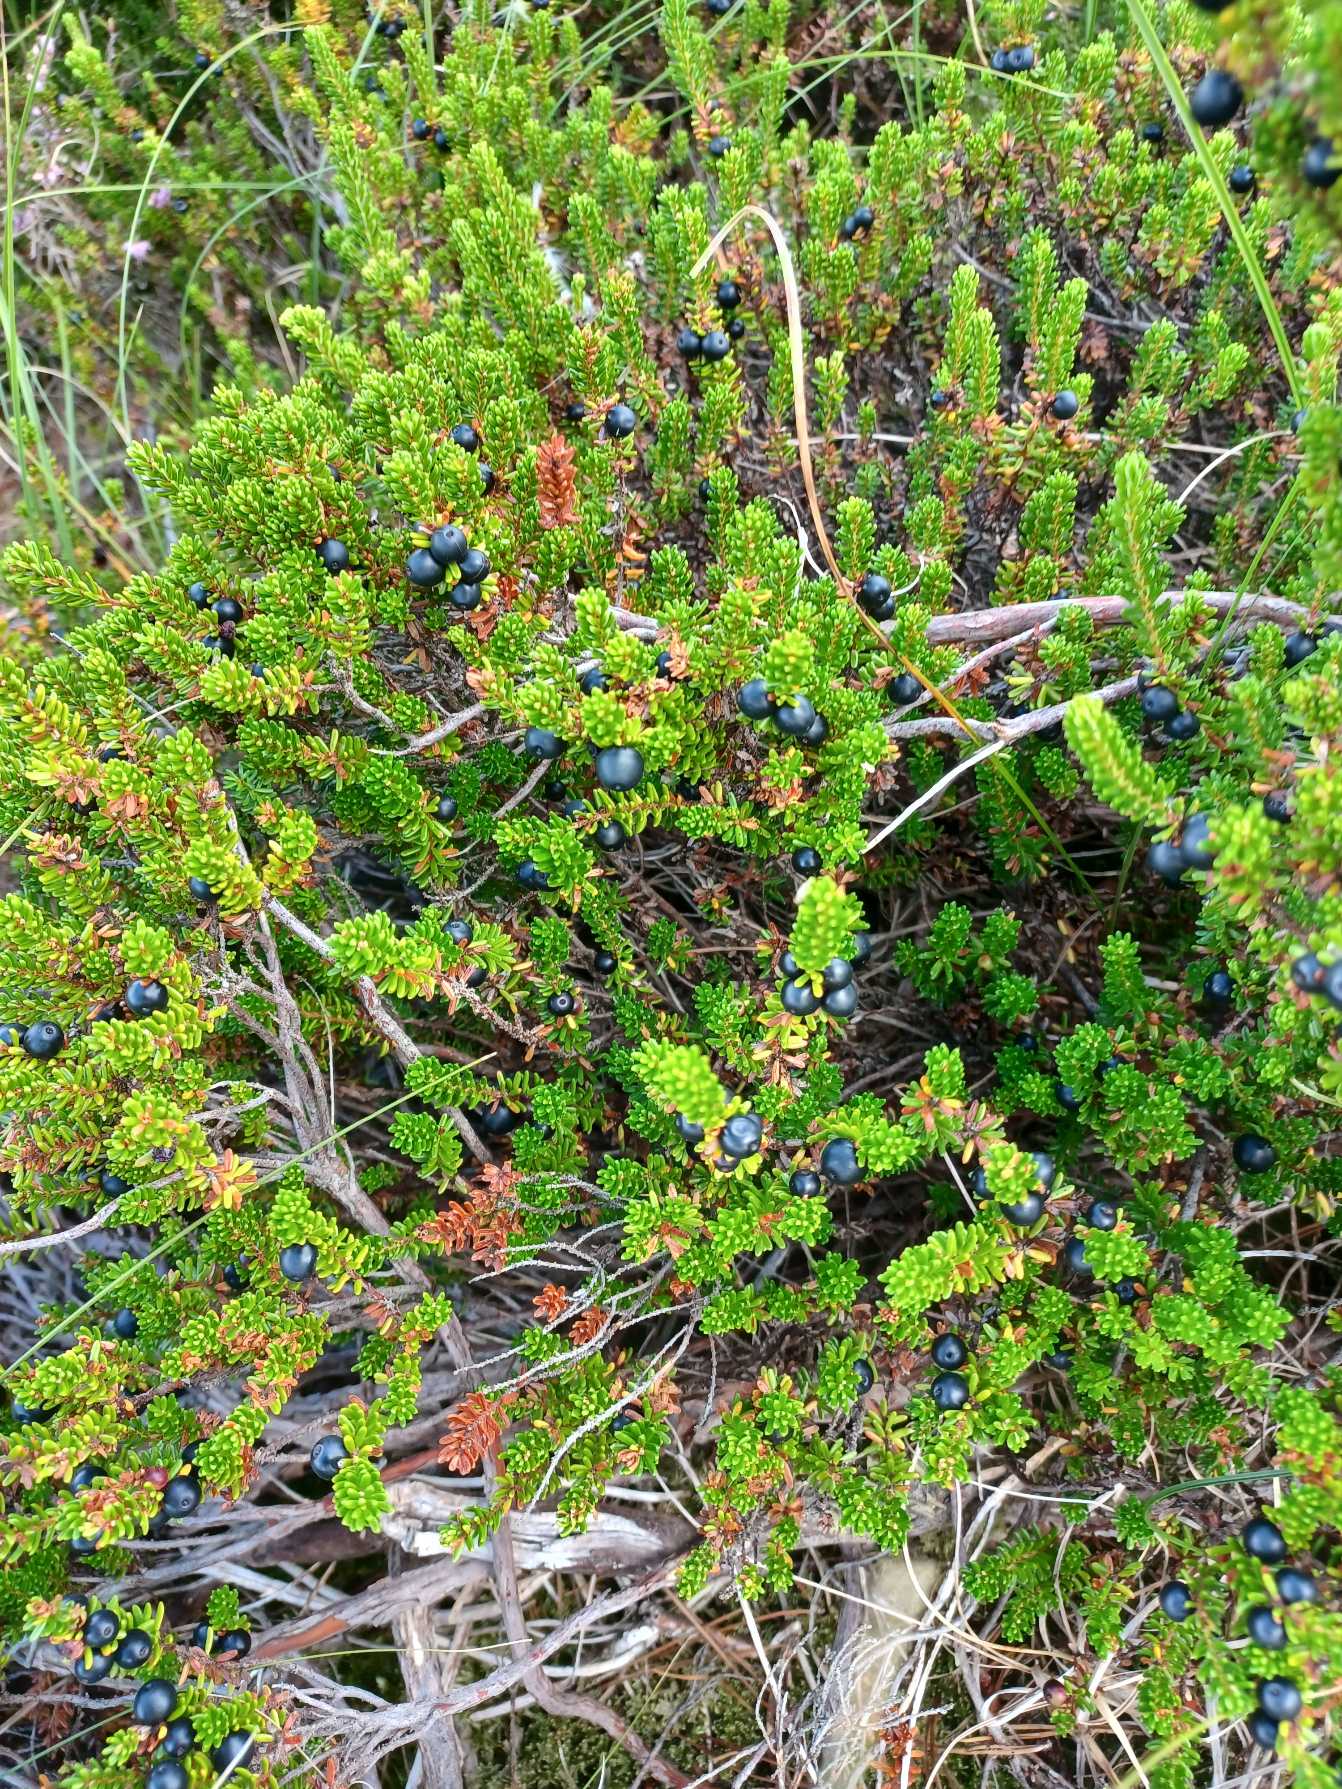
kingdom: Plantae
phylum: Tracheophyta
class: Magnoliopsida
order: Ericales
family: Ericaceae
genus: Empetrum
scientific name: Empetrum nigrum
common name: Revling
